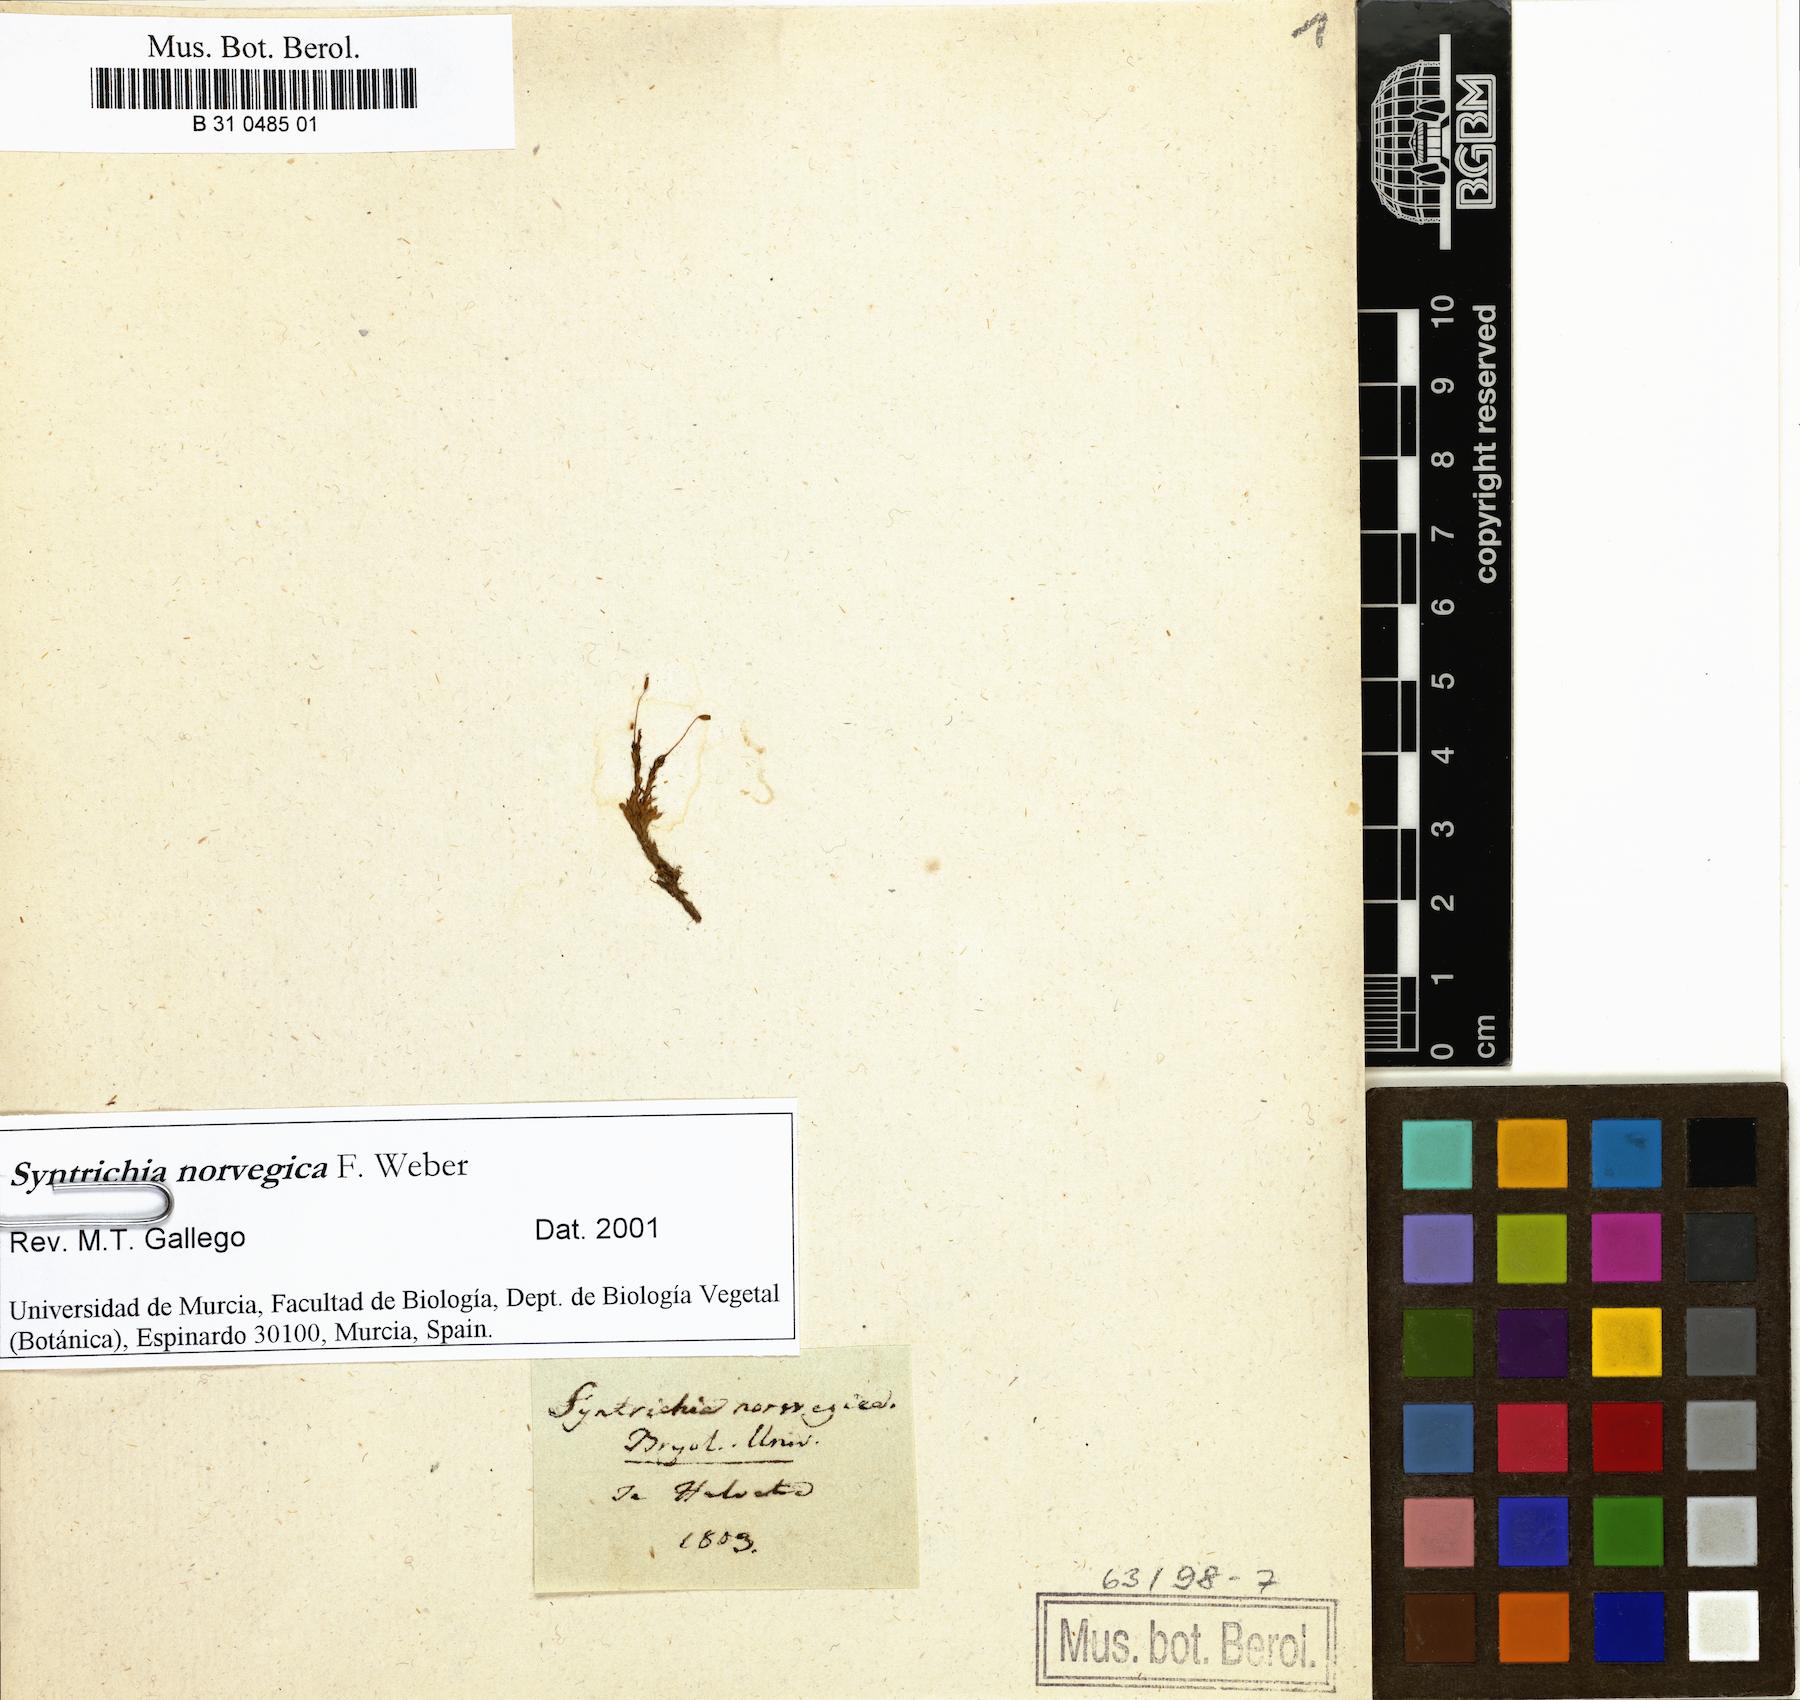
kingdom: Plantae
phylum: Bryophyta
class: Bryopsida
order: Pottiales
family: Pottiaceae
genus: Syntrichia
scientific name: Syntrichia norvegica
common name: Norway screw moss
